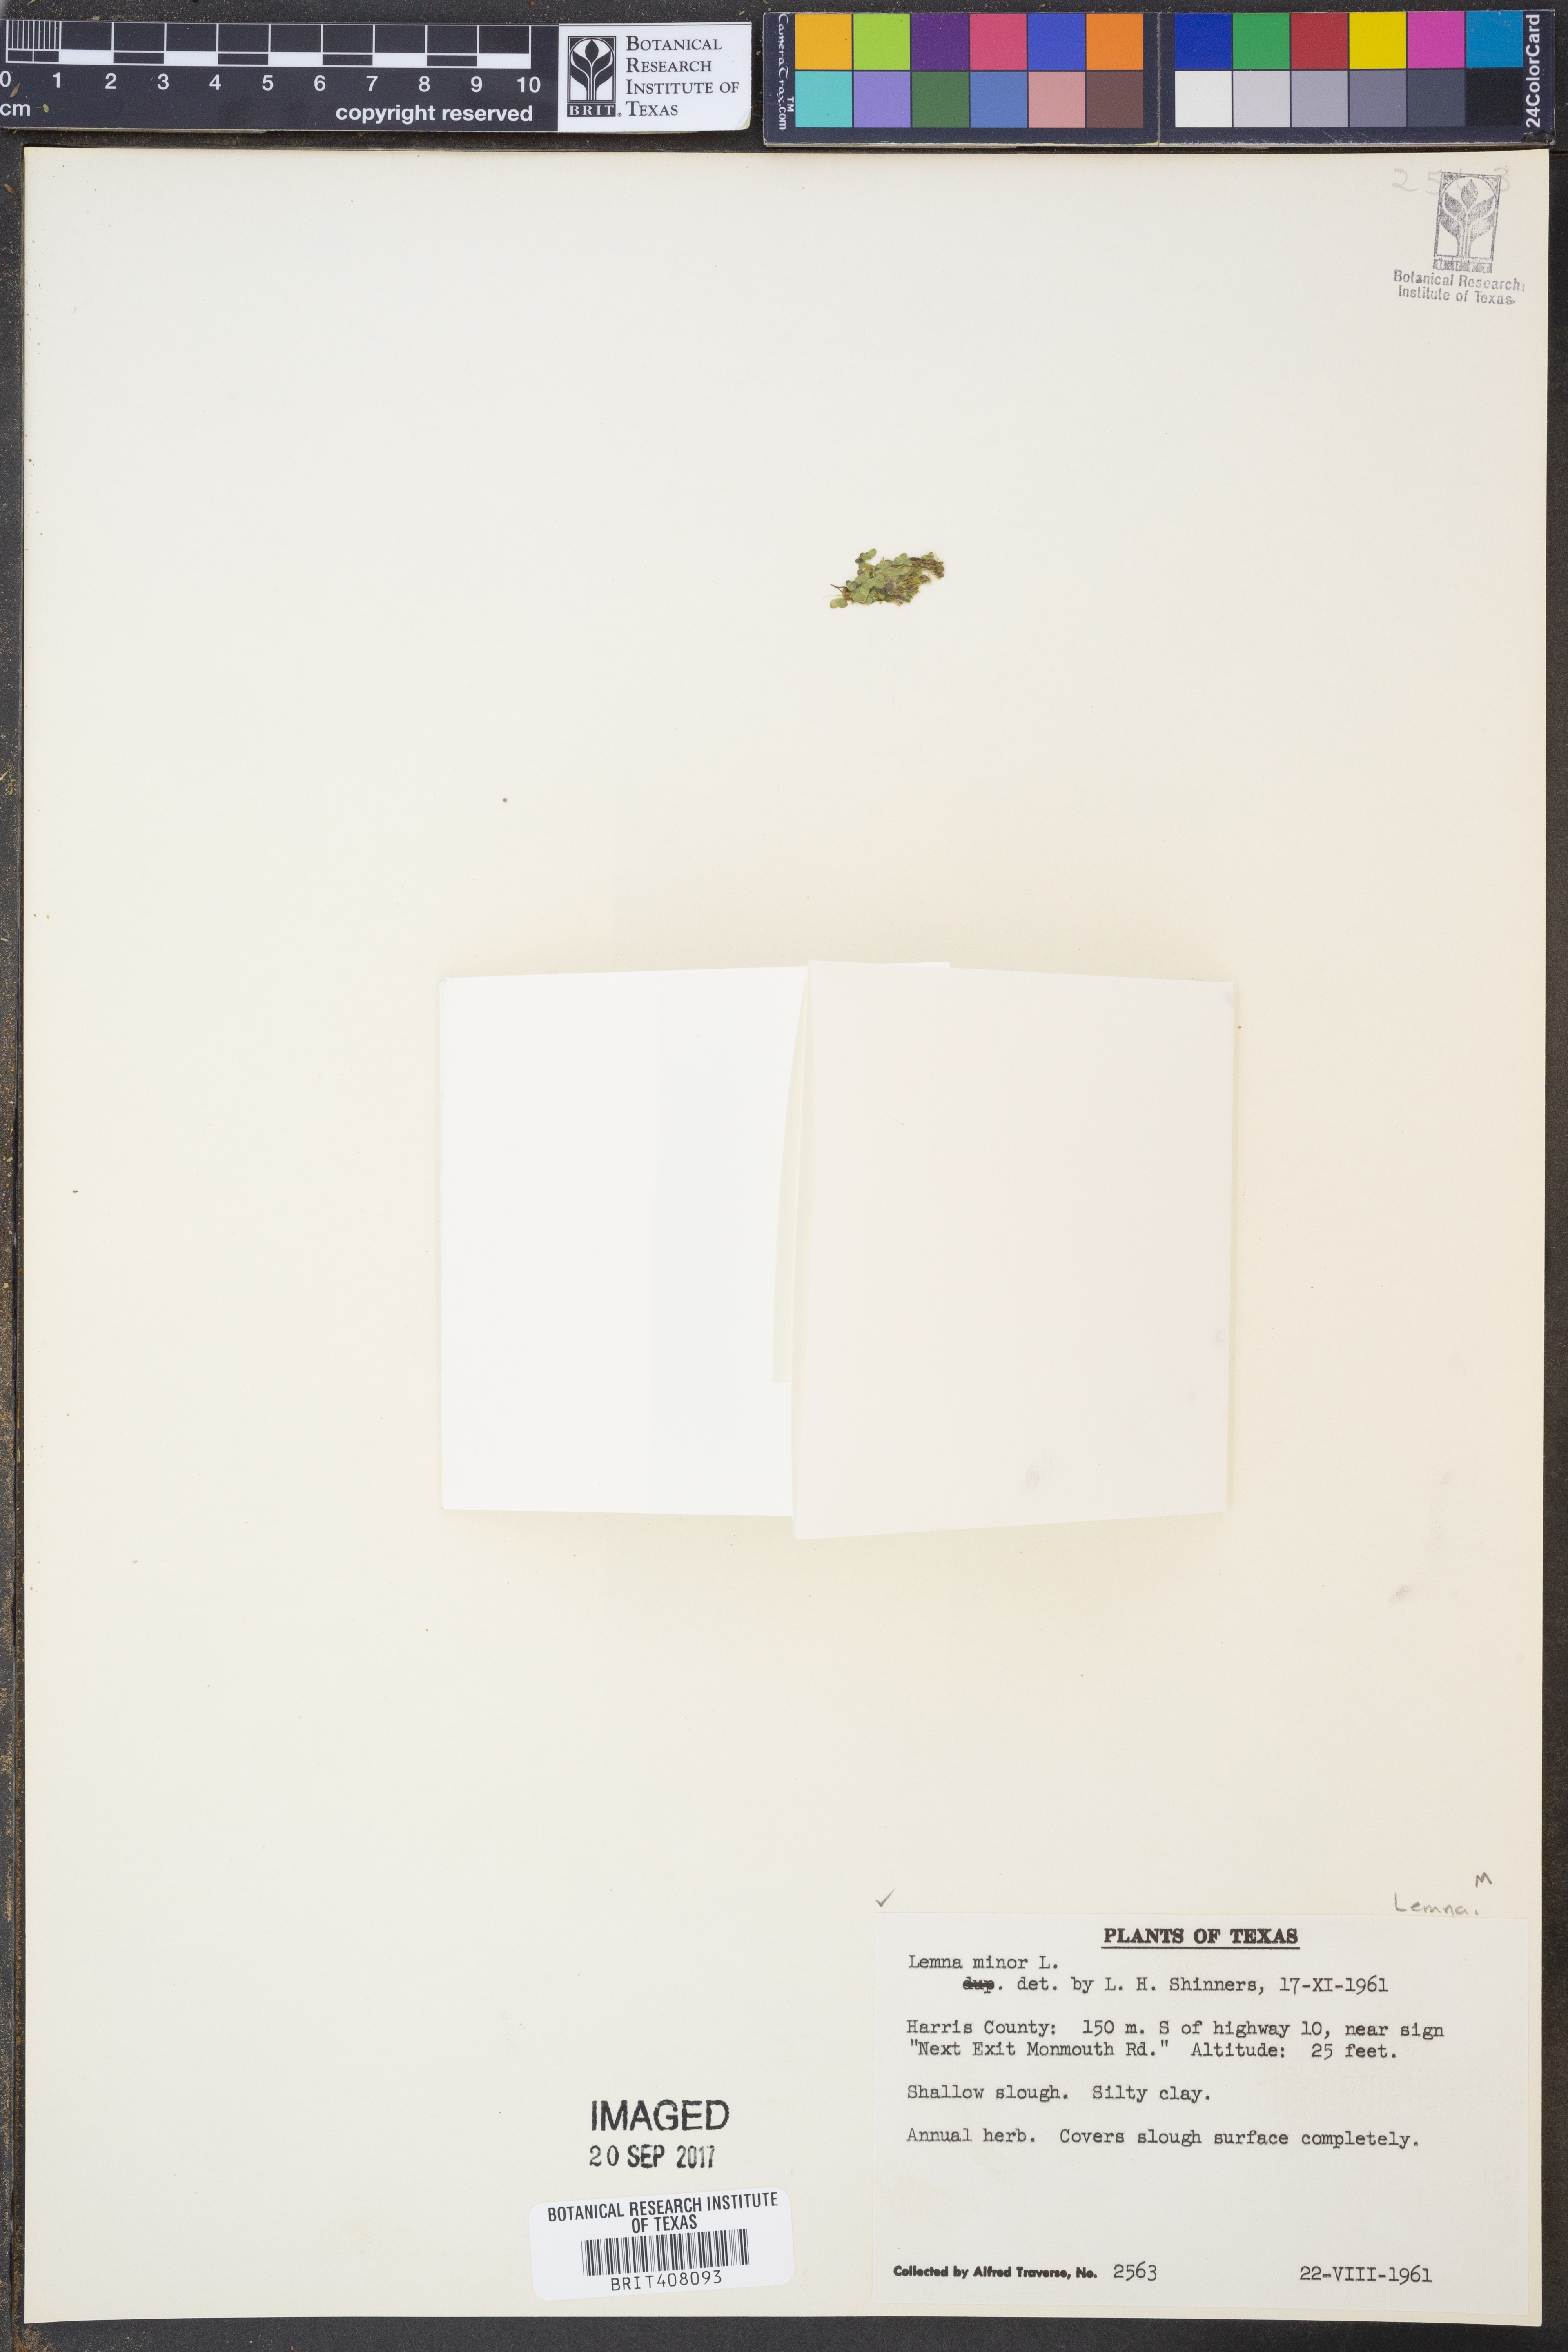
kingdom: Plantae
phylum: Tracheophyta
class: Liliopsida
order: Alismatales
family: Araceae
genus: Lemna
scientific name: Lemna minor
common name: Common duckweed
